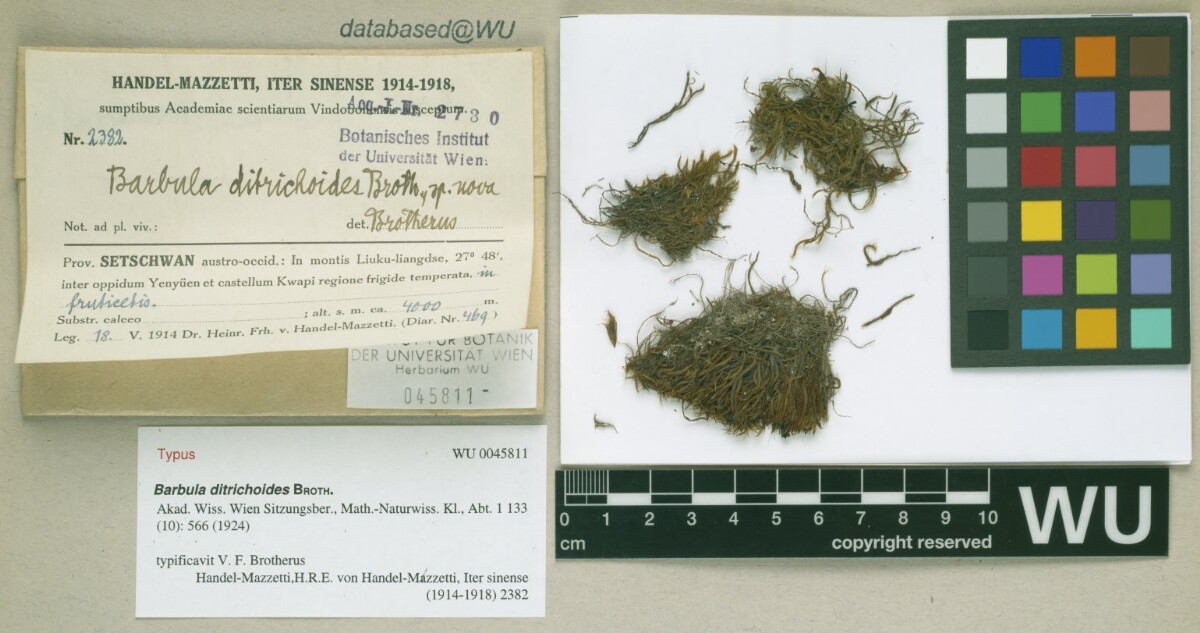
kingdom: Plantae
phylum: Bryophyta
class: Bryopsida
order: Pottiales
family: Pottiaceae
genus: Didymodon
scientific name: Didymodon ditrichoides
